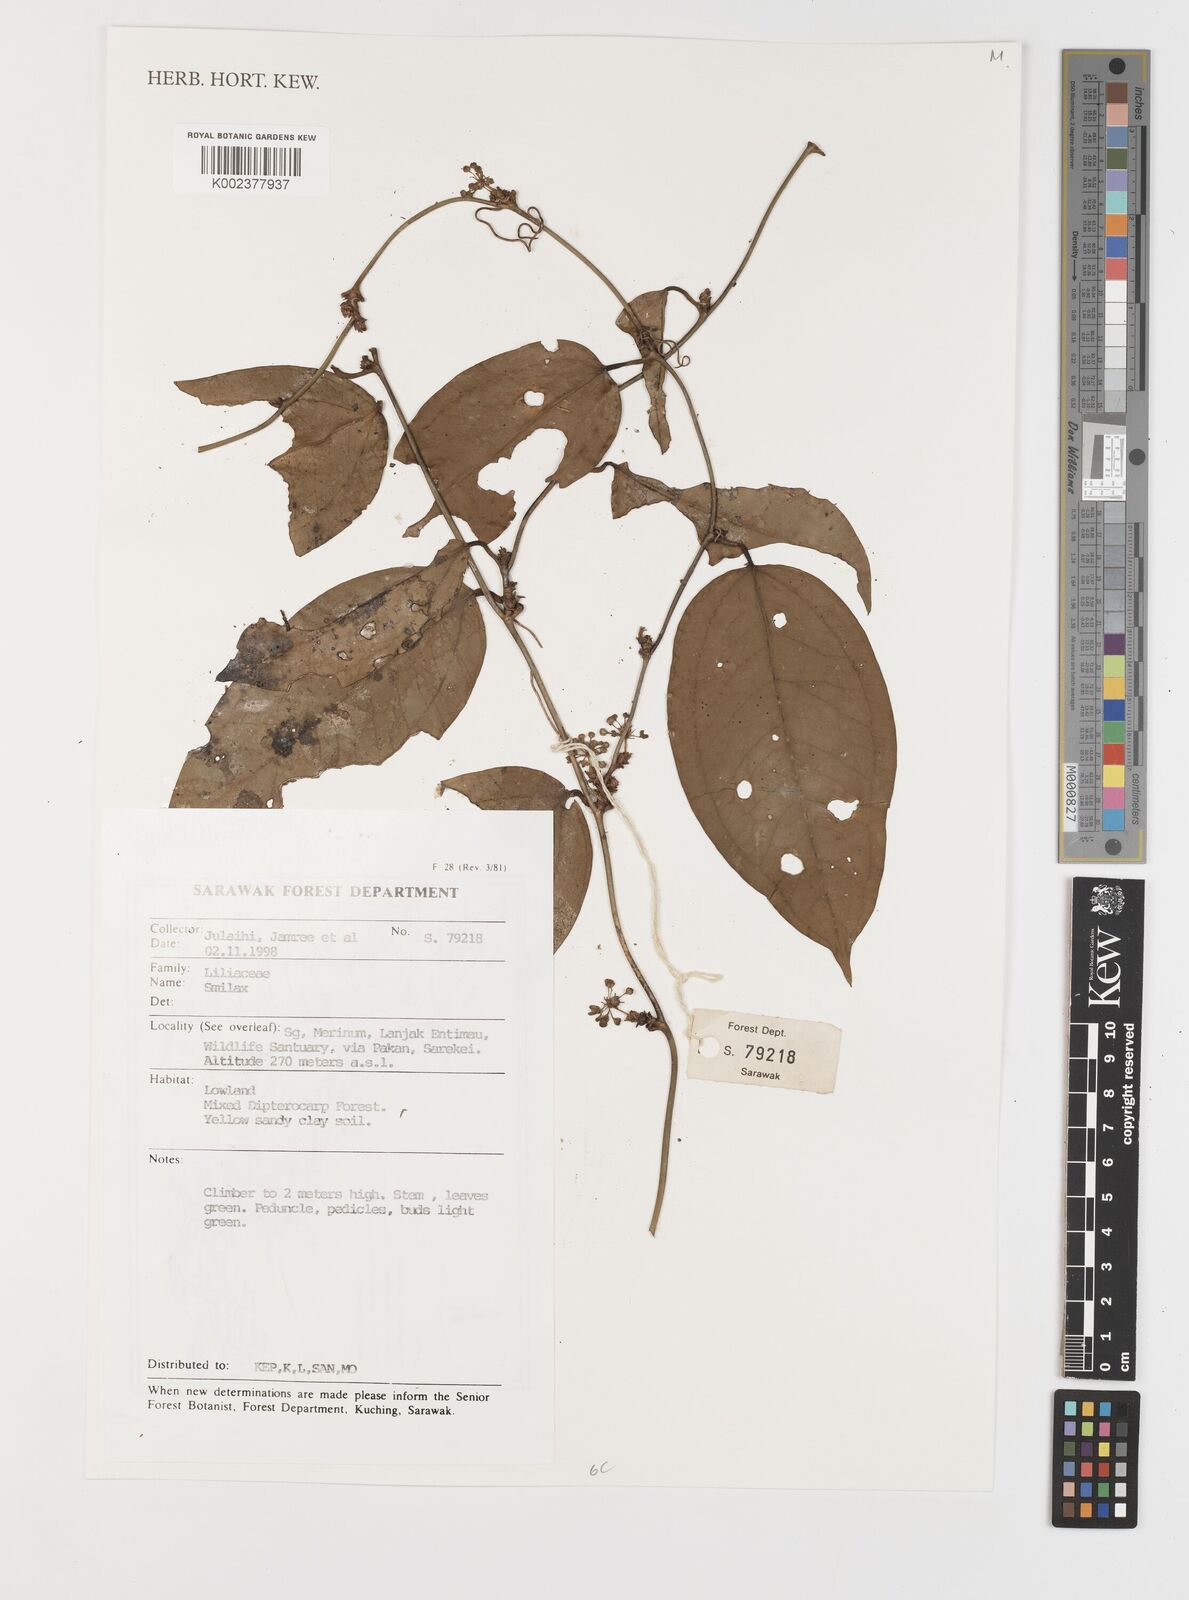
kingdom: Plantae
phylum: Tracheophyta
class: Liliopsida
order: Liliales
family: Smilacaceae
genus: Smilax
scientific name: Smilax
